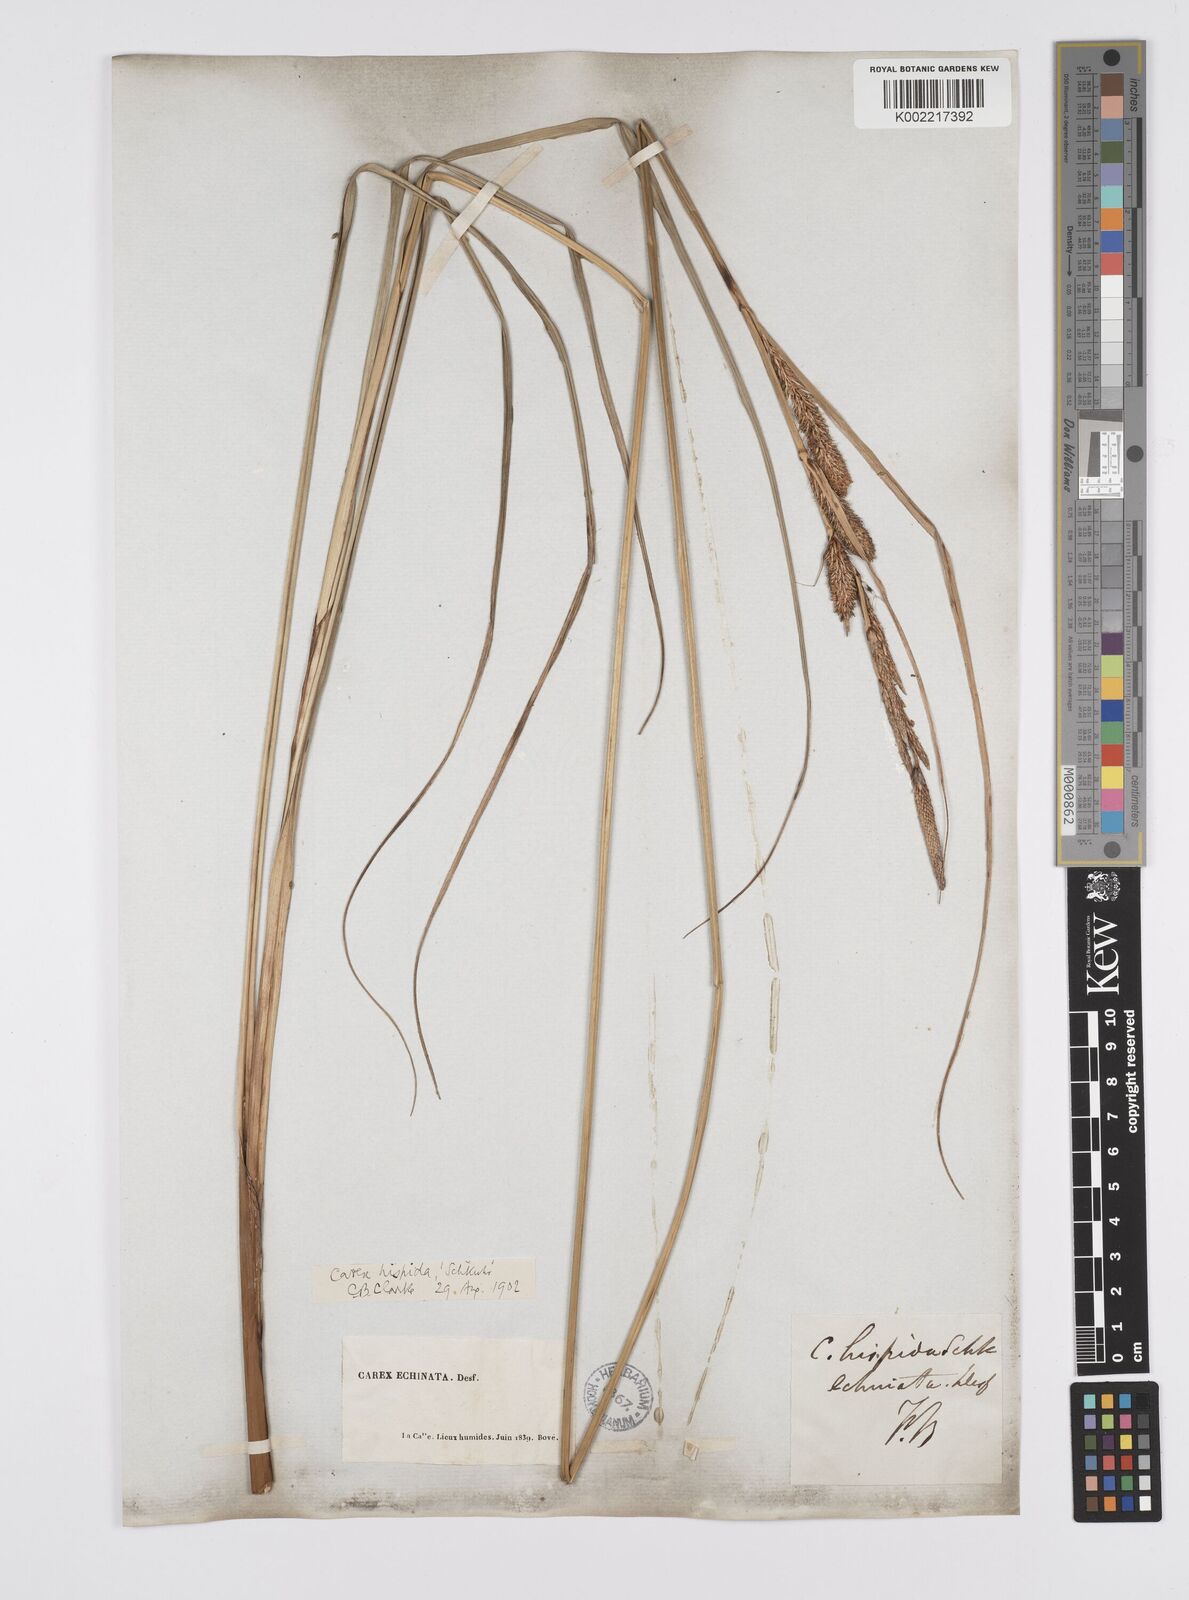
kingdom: Plantae
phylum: Tracheophyta
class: Liliopsida
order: Poales
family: Cyperaceae
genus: Carex
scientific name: Carex hispida
